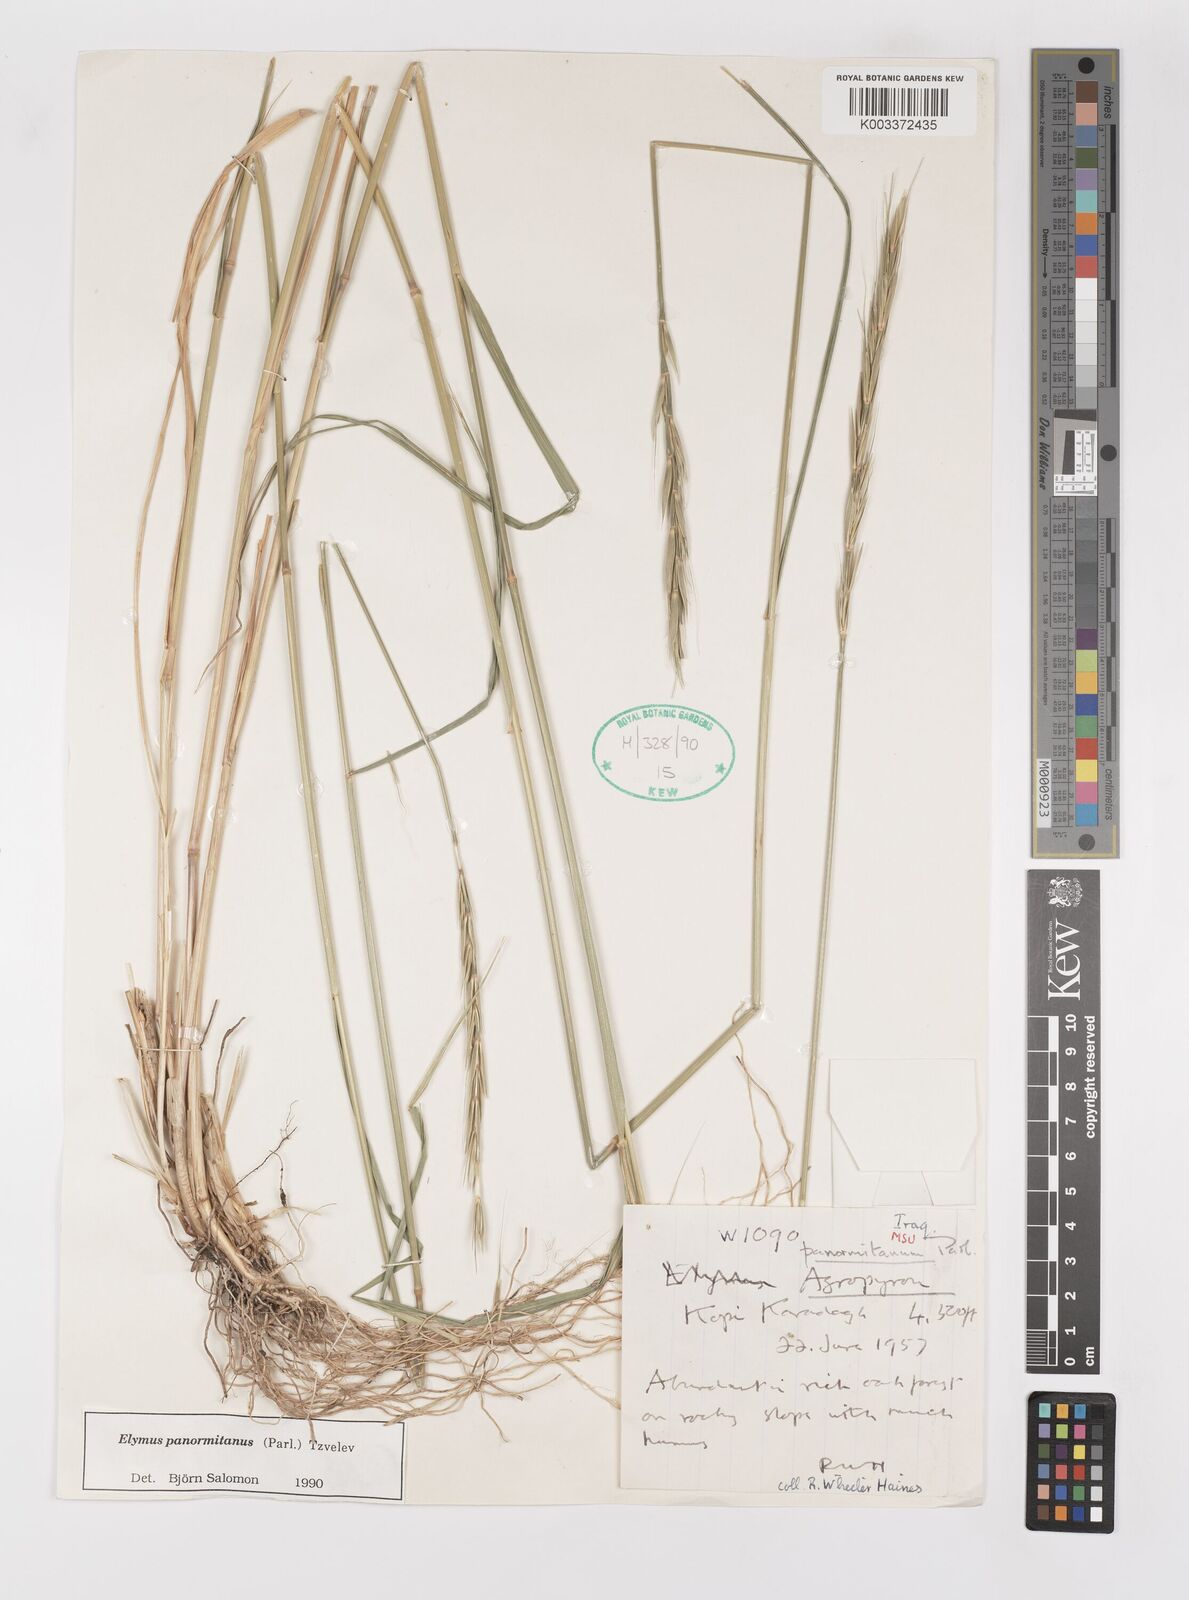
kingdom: Plantae
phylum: Tracheophyta
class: Liliopsida
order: Poales
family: Poaceae
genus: Elymus
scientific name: Elymus panormitanus
